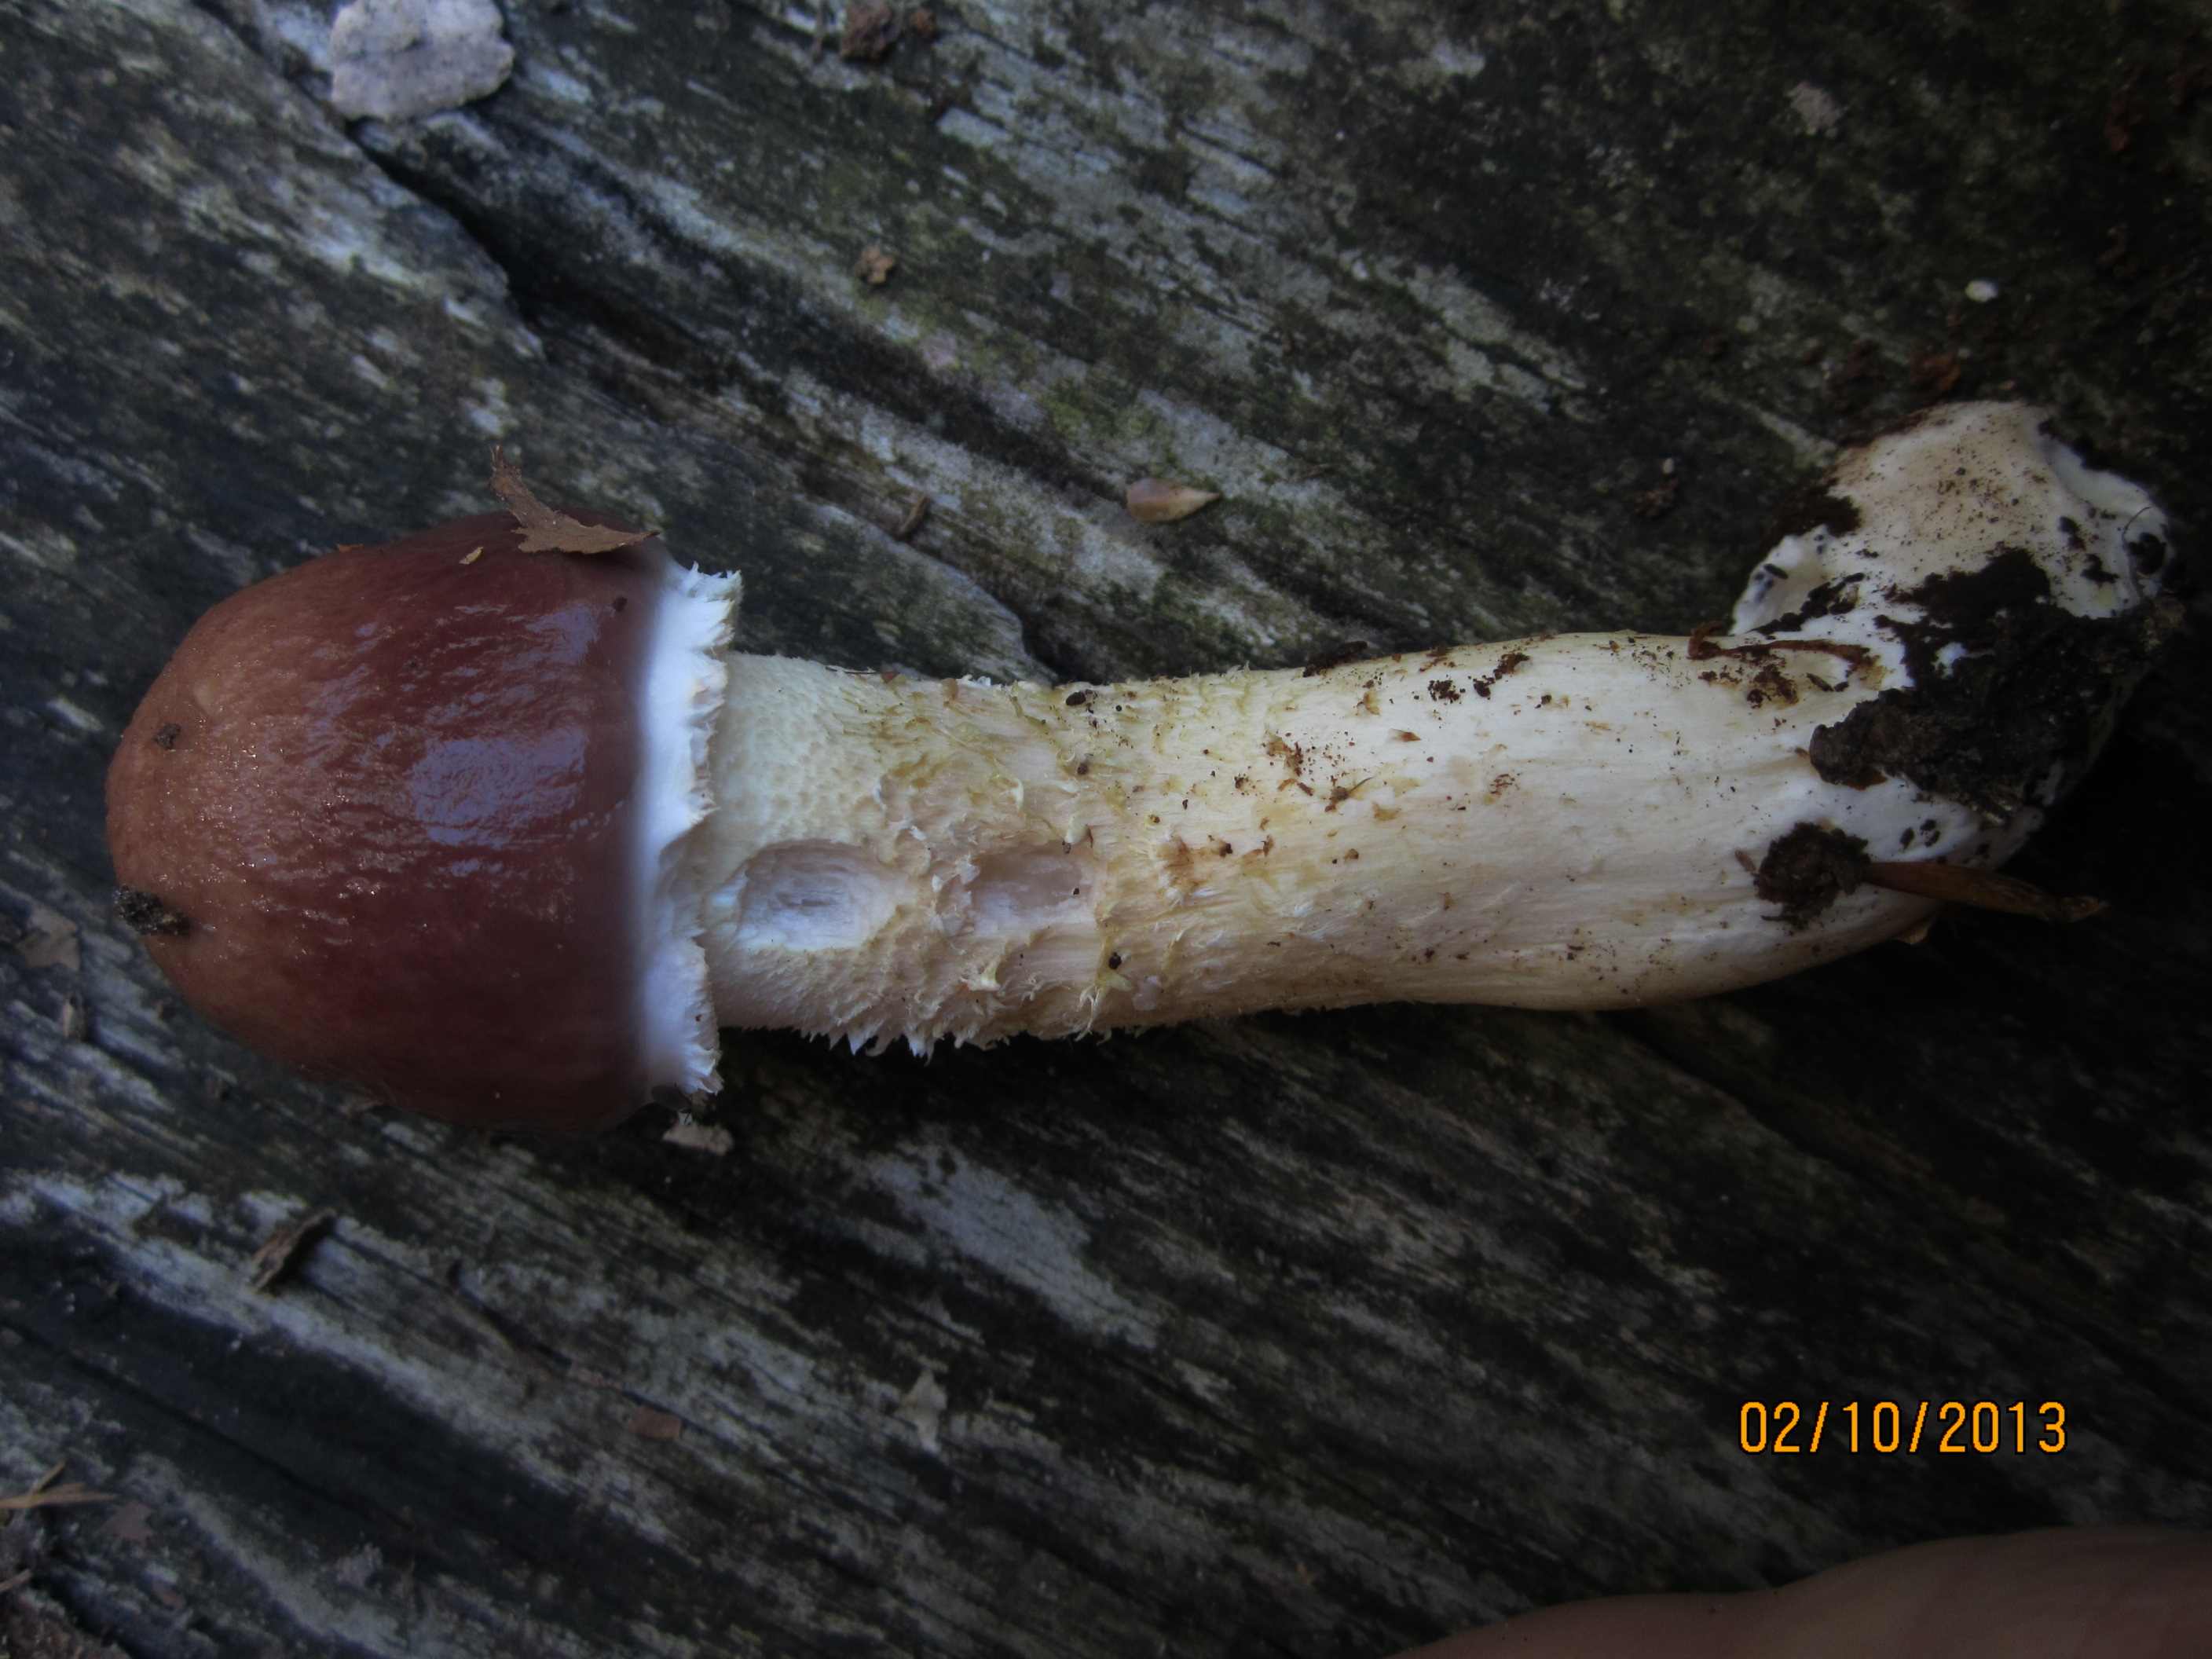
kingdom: Fungi
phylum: Basidiomycota
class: Agaricomycetes
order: Agaricales
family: Strophariaceae
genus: Stropharia
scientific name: Stropharia hornemannii
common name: nordisk bredblad
